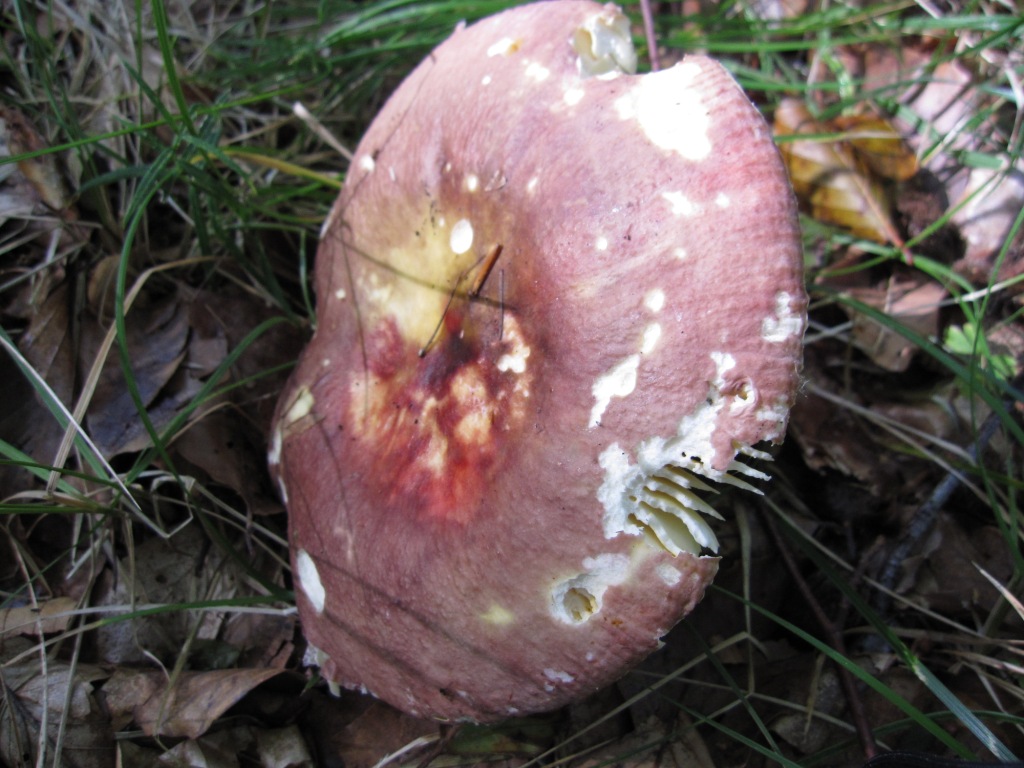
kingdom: Fungi
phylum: Basidiomycota
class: Agaricomycetes
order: Russulales
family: Russulaceae
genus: Russula
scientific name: Russula romellii
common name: romells skørhat
